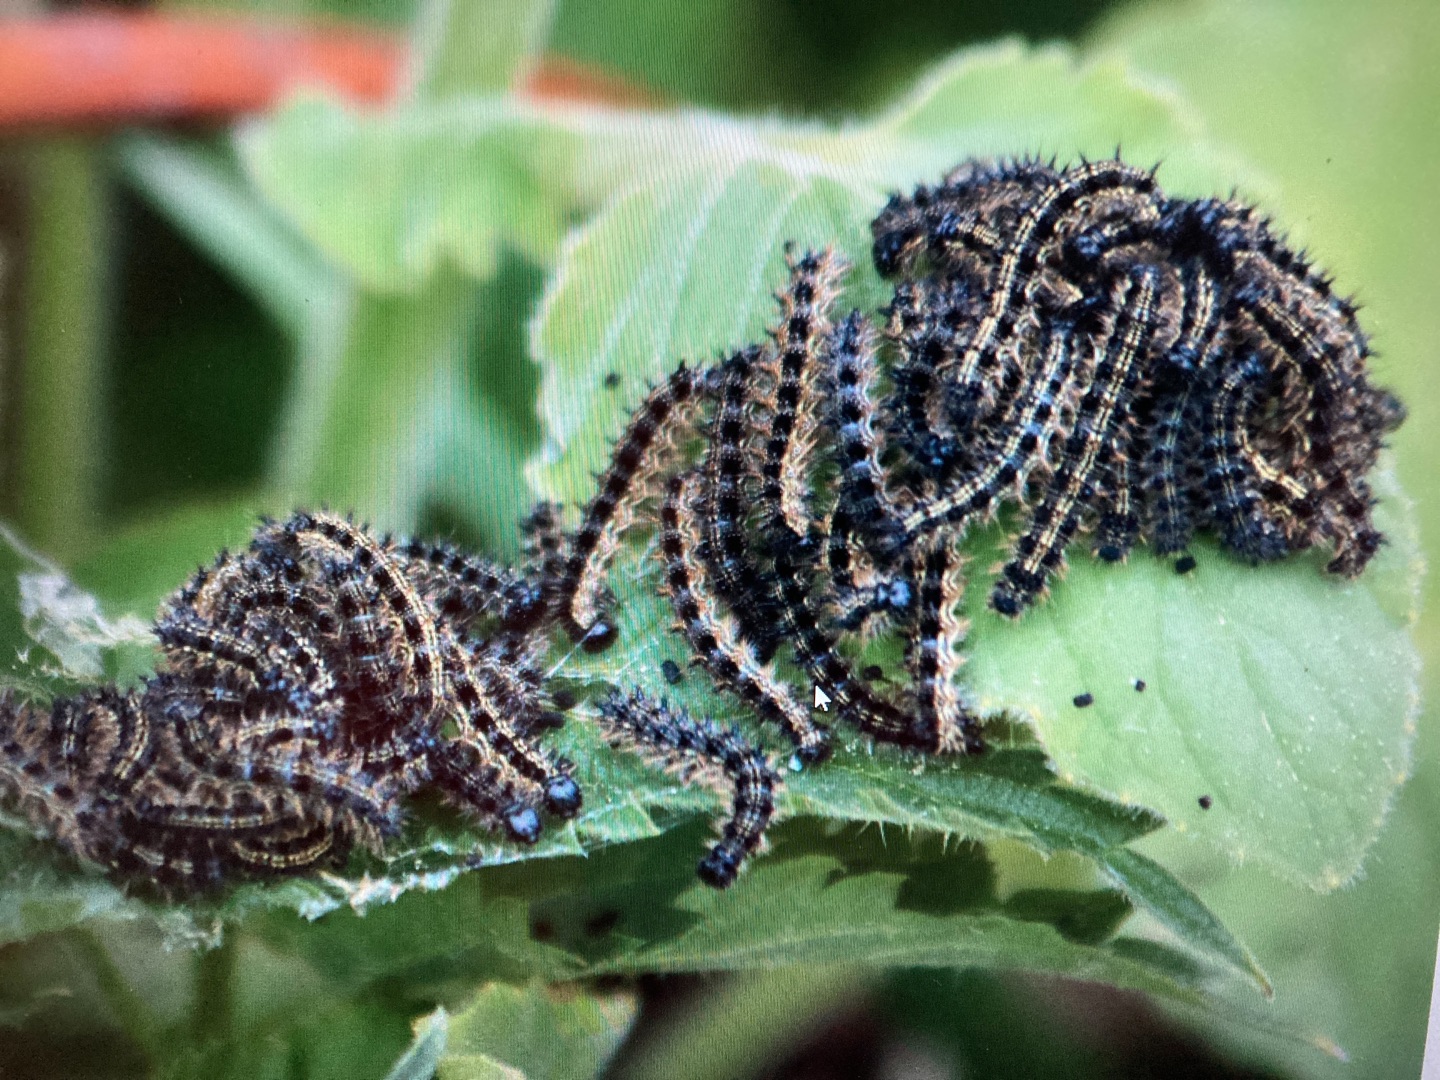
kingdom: Animalia
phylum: Arthropoda
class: Insecta
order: Lepidoptera
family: Nymphalidae
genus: Aglais
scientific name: Aglais urticae
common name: Nældens takvinge
